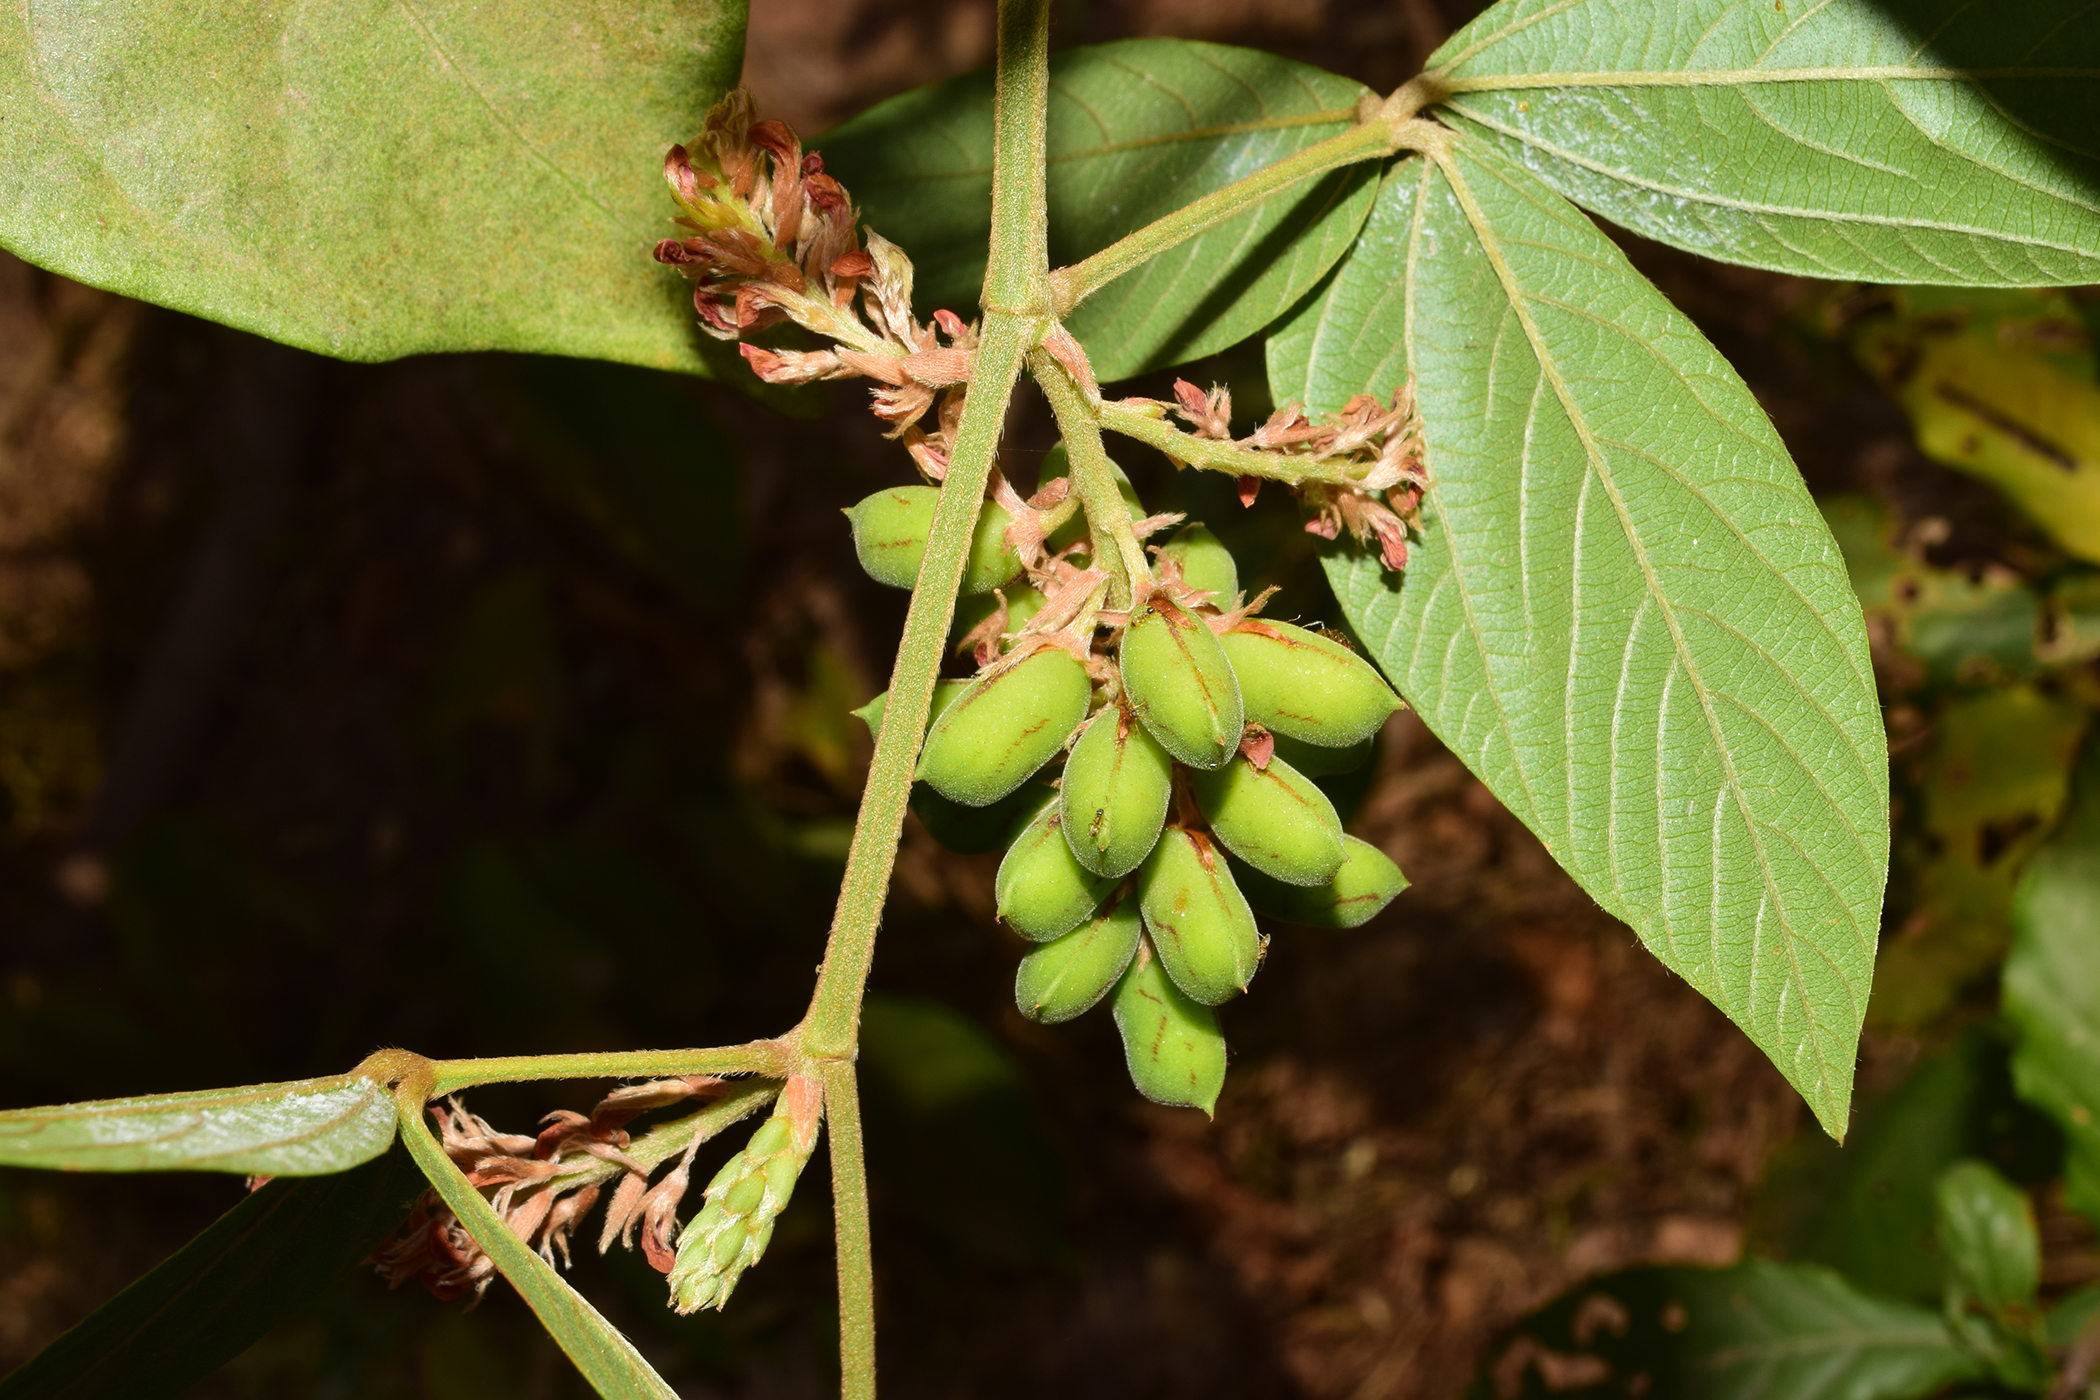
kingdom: Plantae
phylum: Tracheophyta
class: Magnoliopsida
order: Fabales
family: Fabaceae
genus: Flemingia
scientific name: Flemingia stricta
